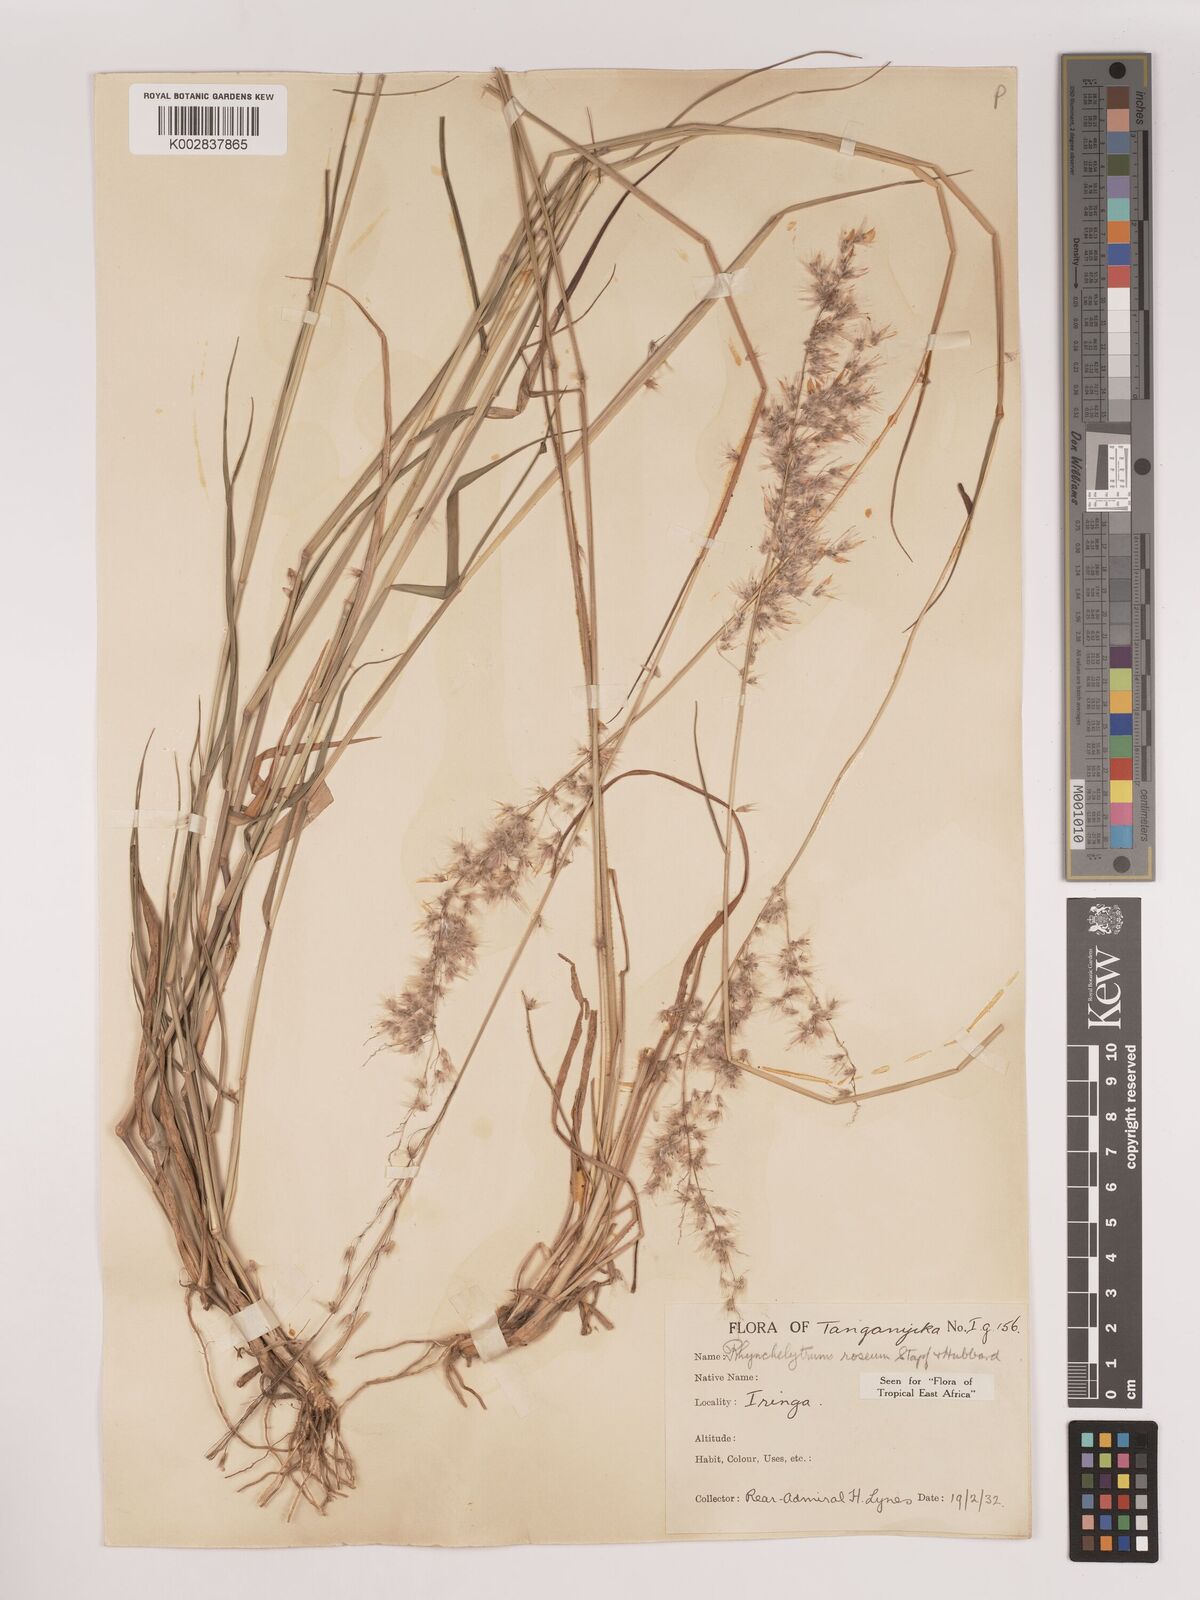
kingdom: Plantae
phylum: Tracheophyta
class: Liliopsida
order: Poales
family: Poaceae
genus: Melinis
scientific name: Melinis repens
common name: Rose natal grass
